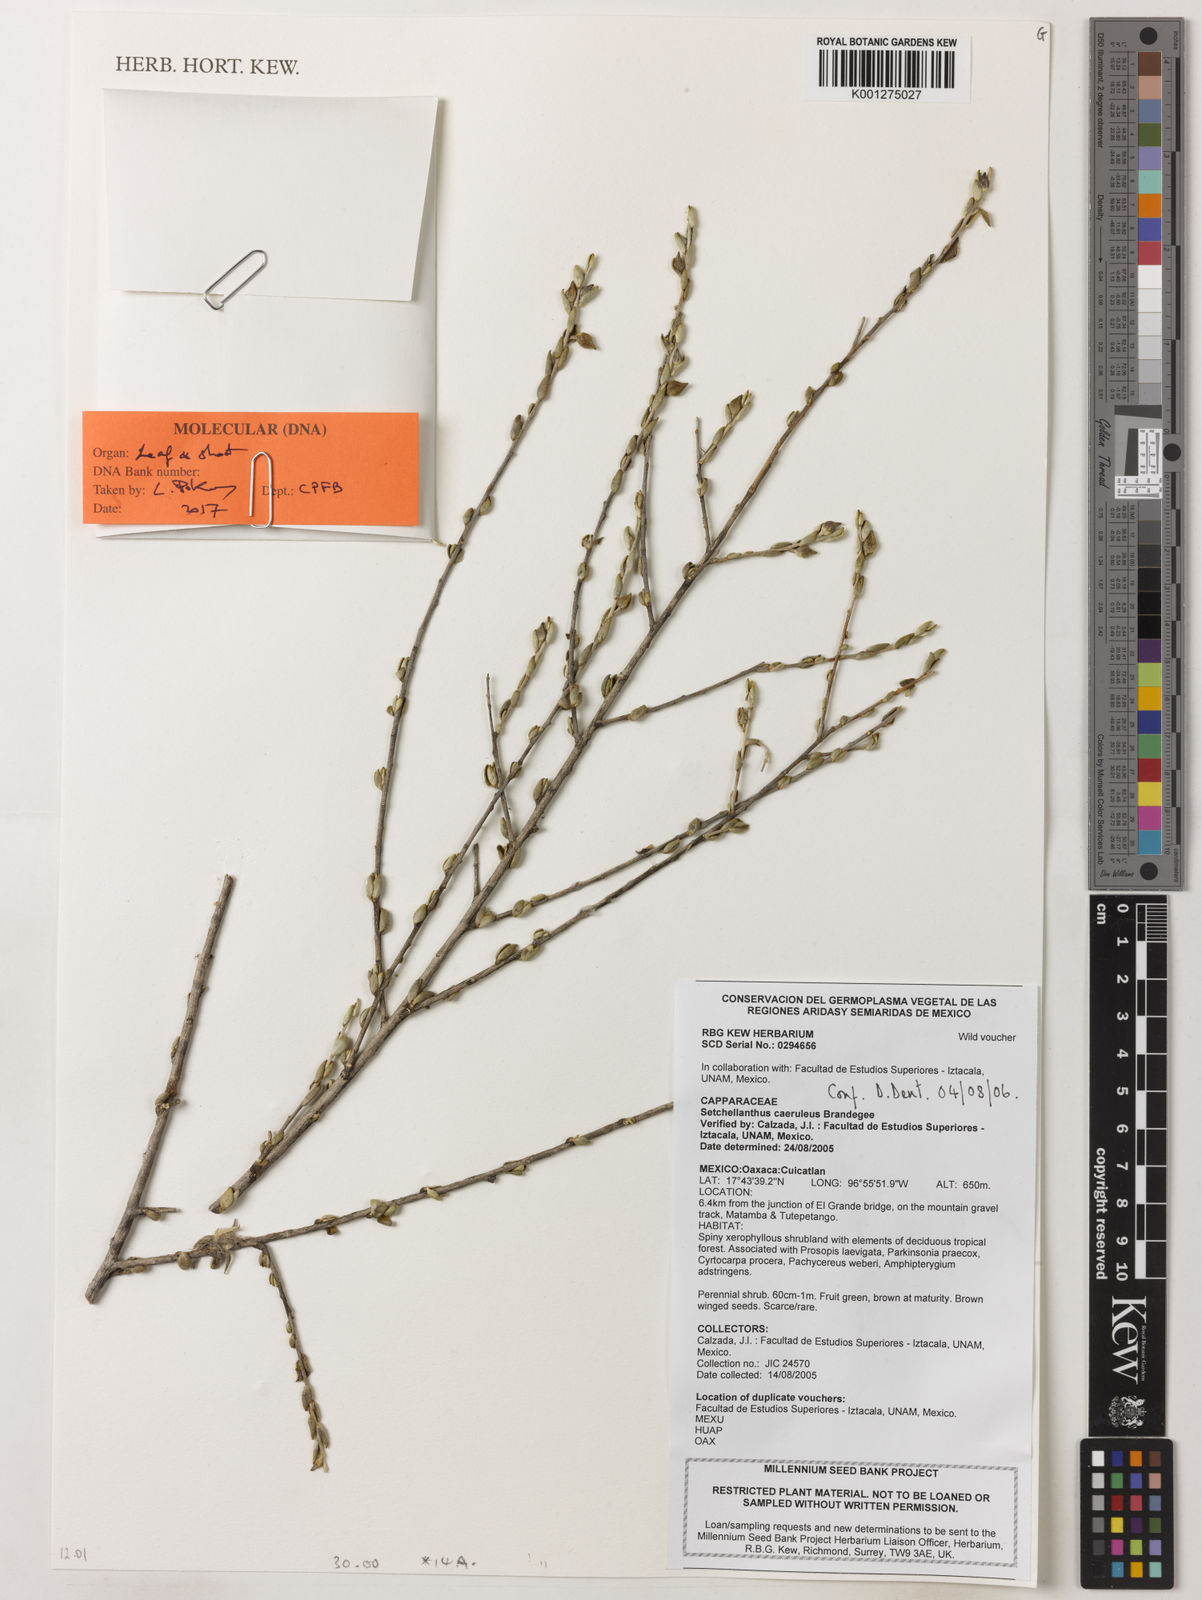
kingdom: Plantae
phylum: Tracheophyta
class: Magnoliopsida
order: Brassicales
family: Setchellanthaceae
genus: Setchellanthus
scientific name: Setchellanthus caeruleus
